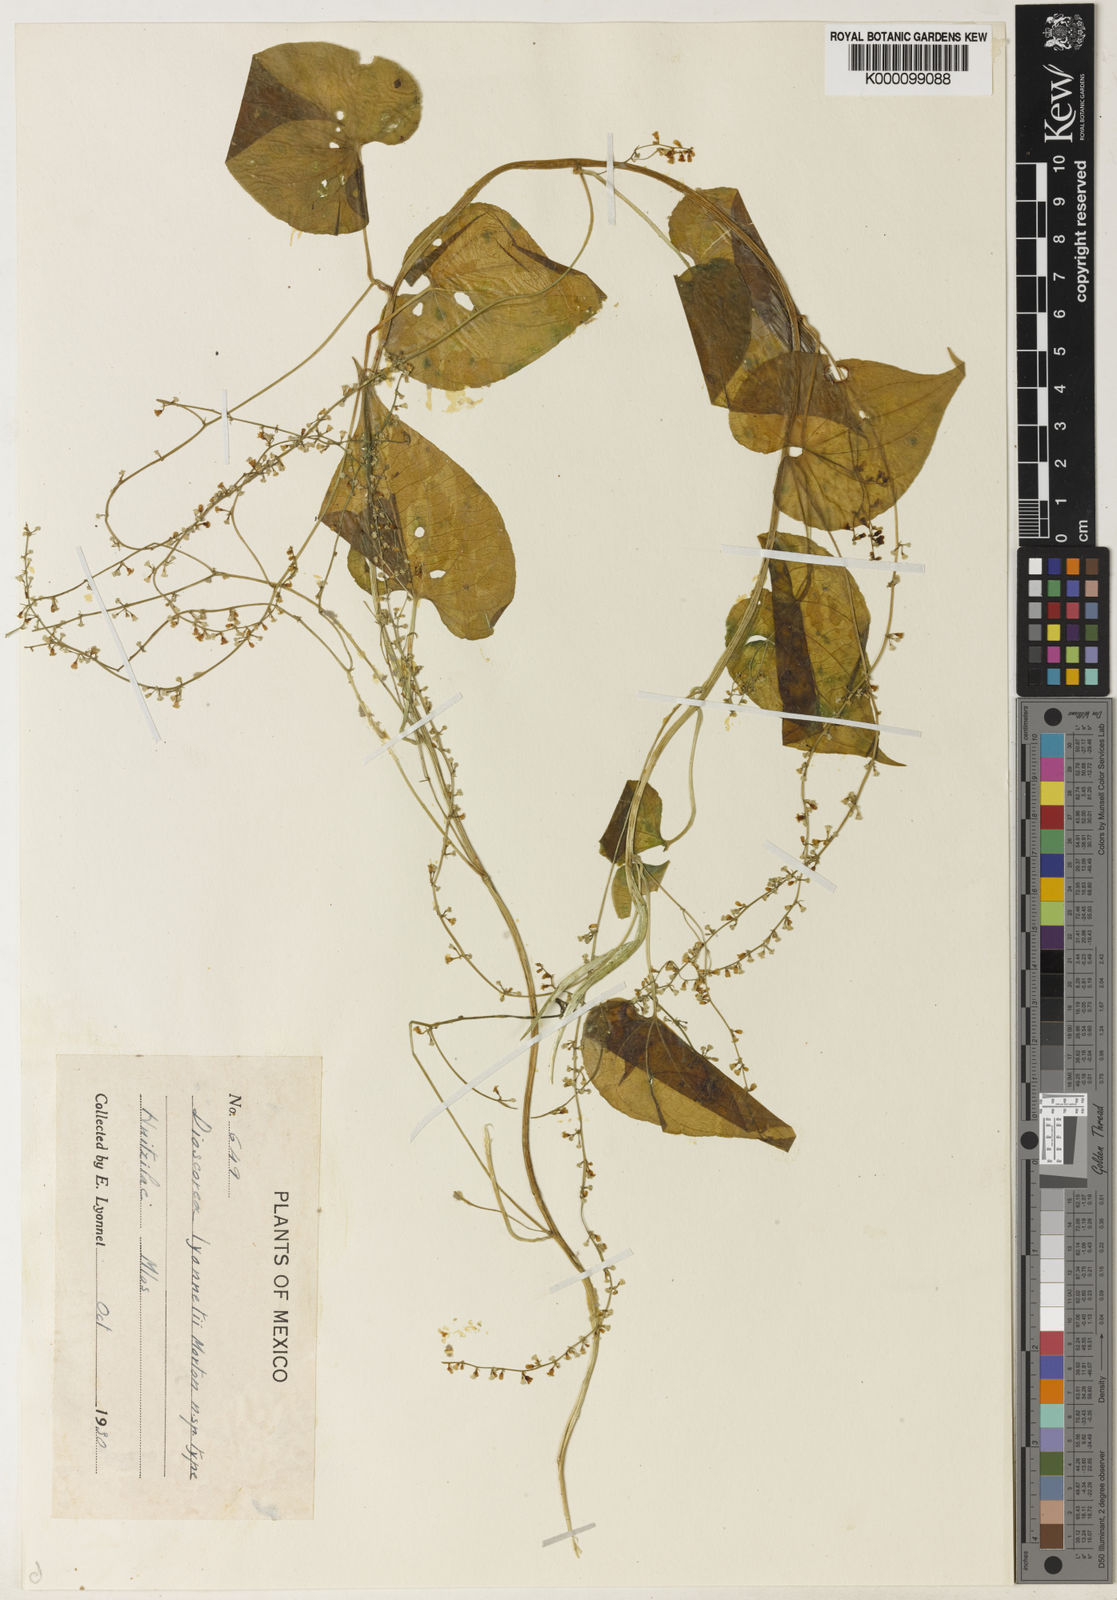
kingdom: Plantae
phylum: Tracheophyta
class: Liliopsida
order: Dioscoreales
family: Dioscoreaceae
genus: Dioscorea
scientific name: Dioscorea
